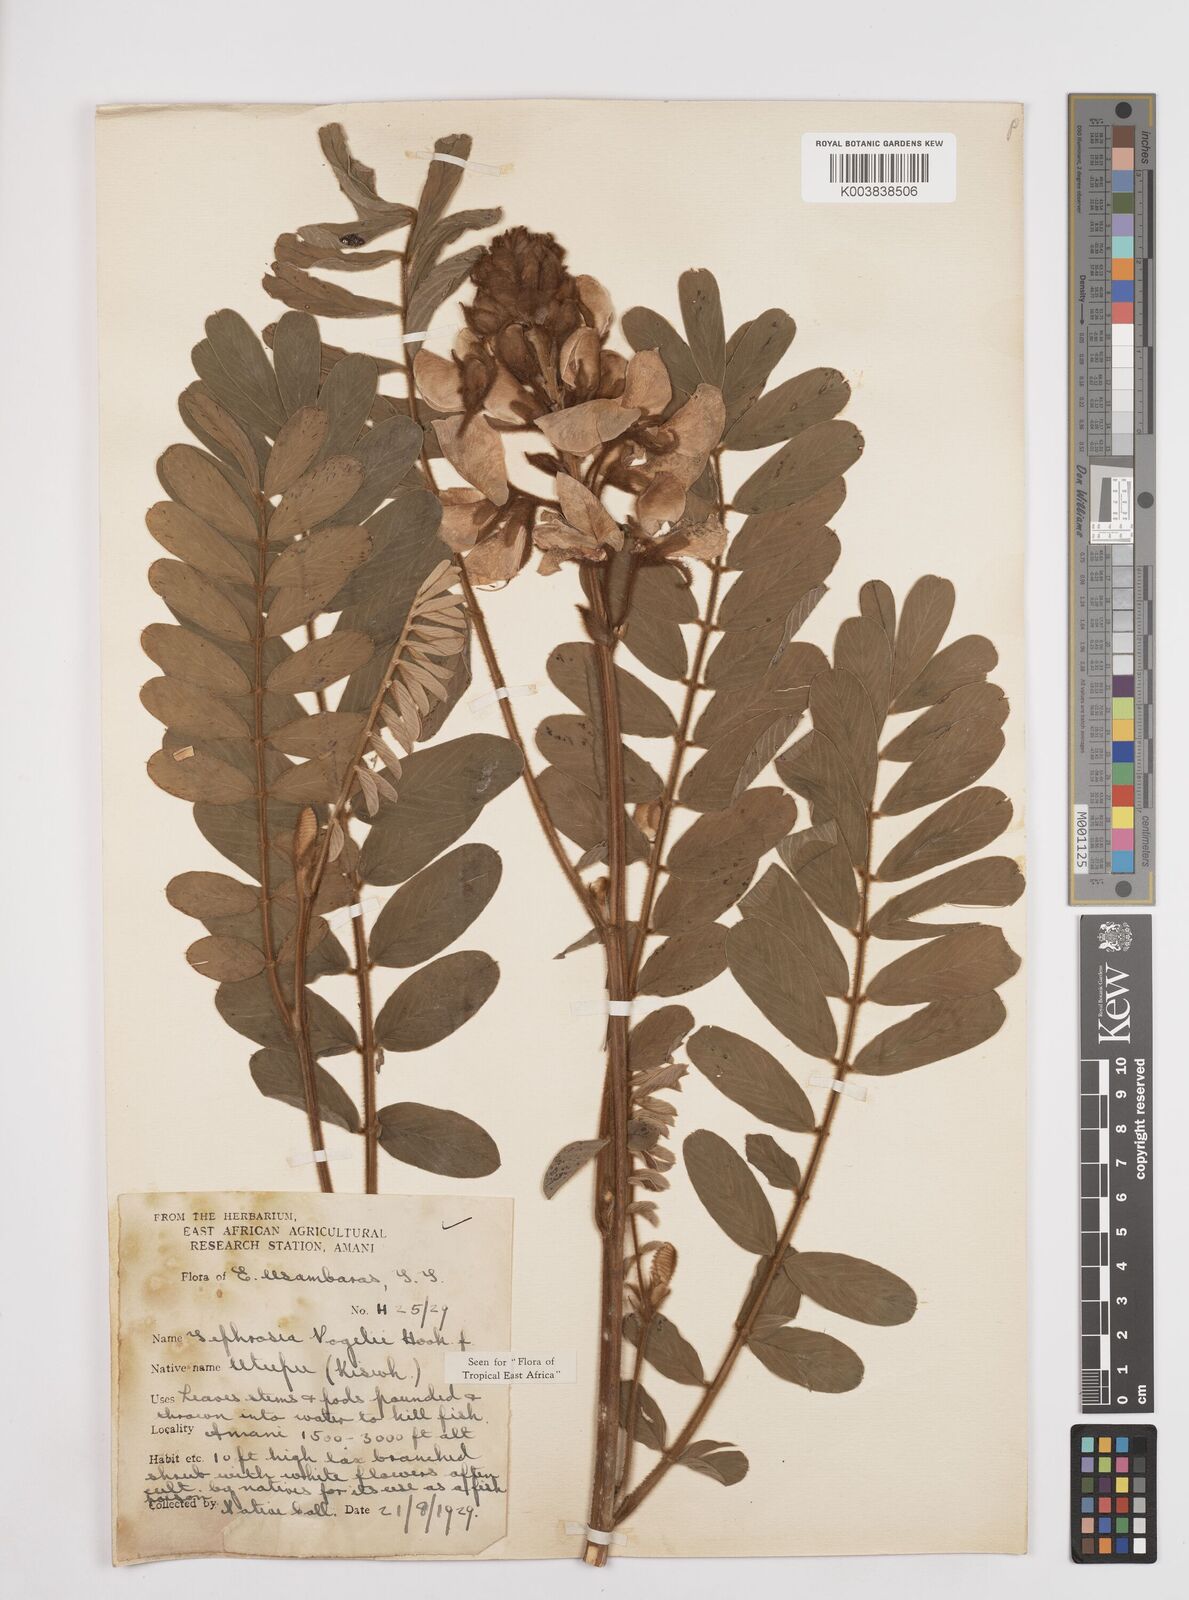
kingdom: Plantae
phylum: Tracheophyta
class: Magnoliopsida
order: Fabales
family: Fabaceae
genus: Tephrosia
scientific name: Tephrosia vogelii
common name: Vogel tephrosia
